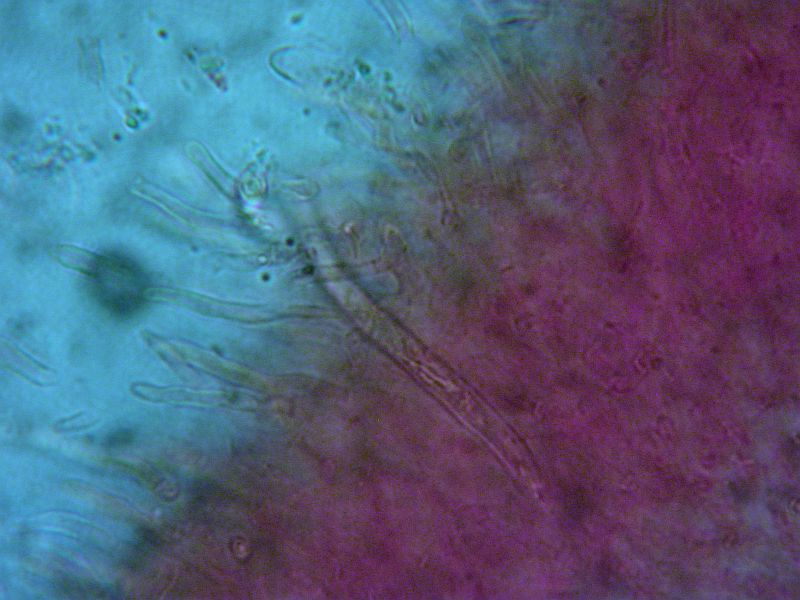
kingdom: Fungi
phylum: Basidiomycota
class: Agaricomycetes
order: Russulales
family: Russulaceae
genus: Russula
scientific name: Russula velenovskyi
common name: orangerød skørhat
